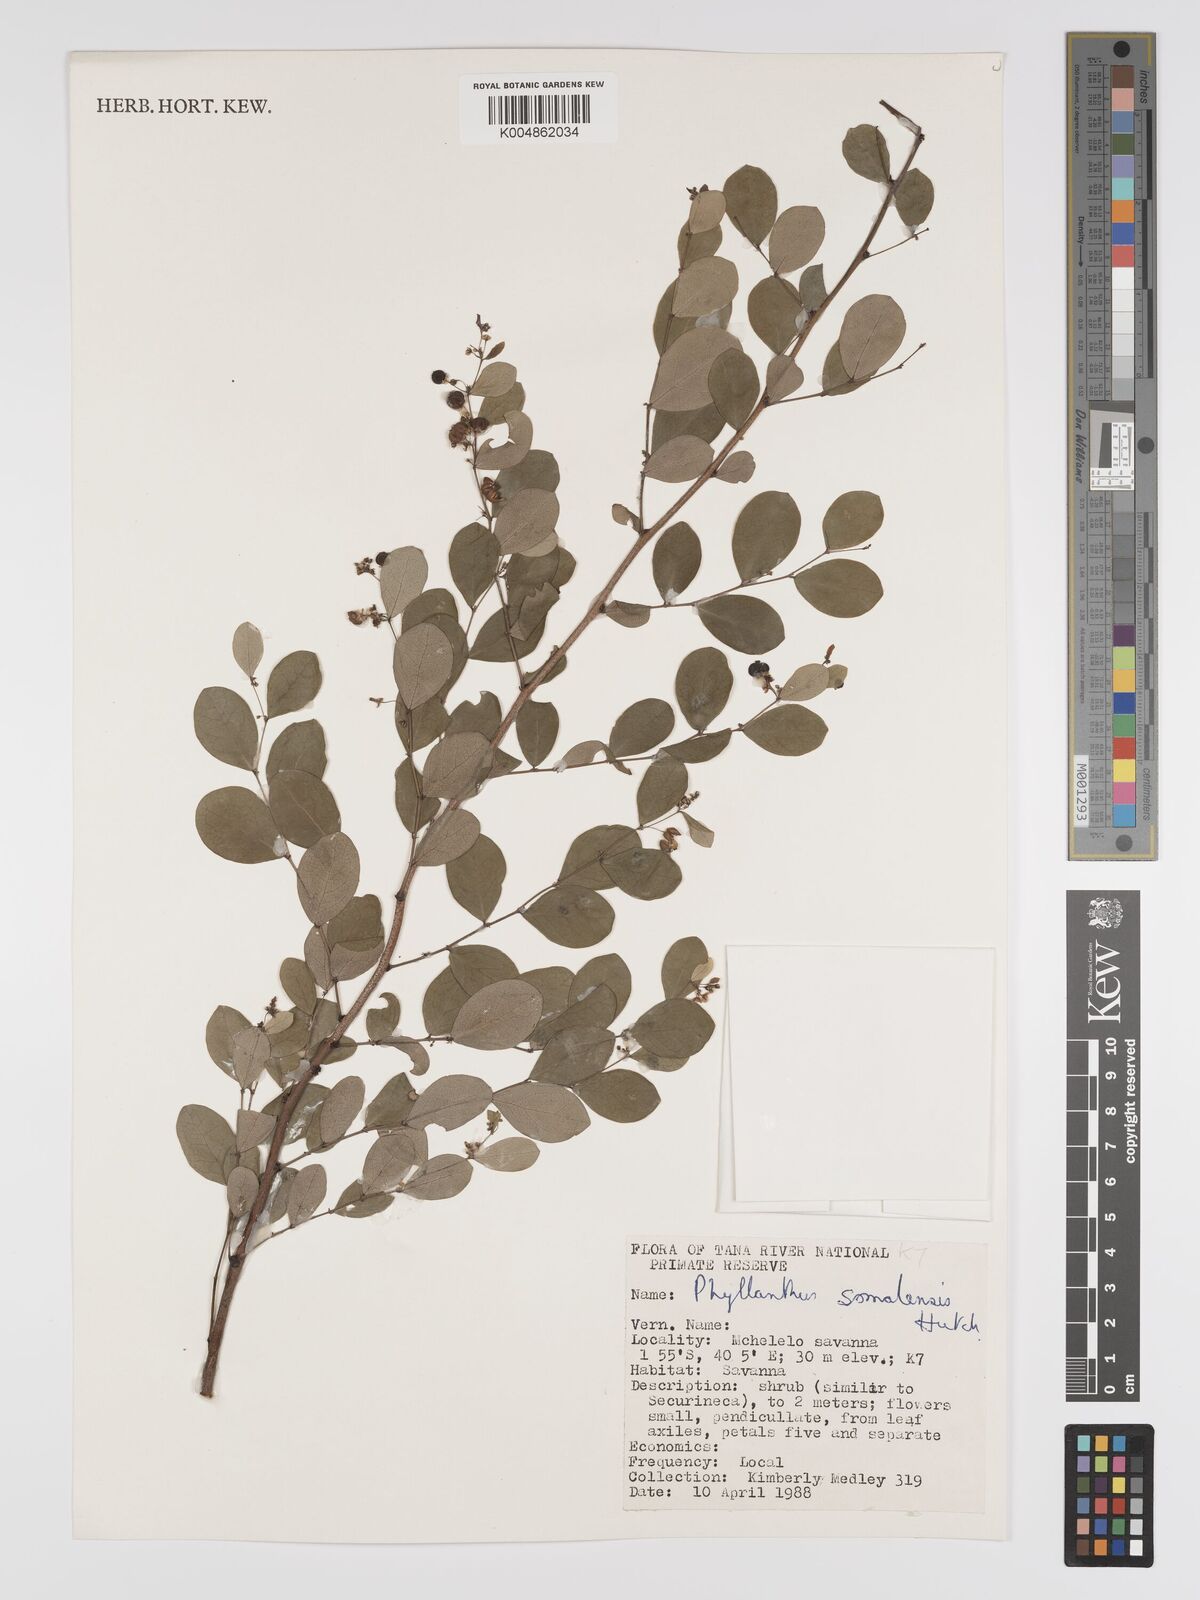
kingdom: Plantae
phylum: Tracheophyta
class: Magnoliopsida
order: Malpighiales
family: Phyllanthaceae
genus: Phyllanthus
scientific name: Phyllanthus somalensis
